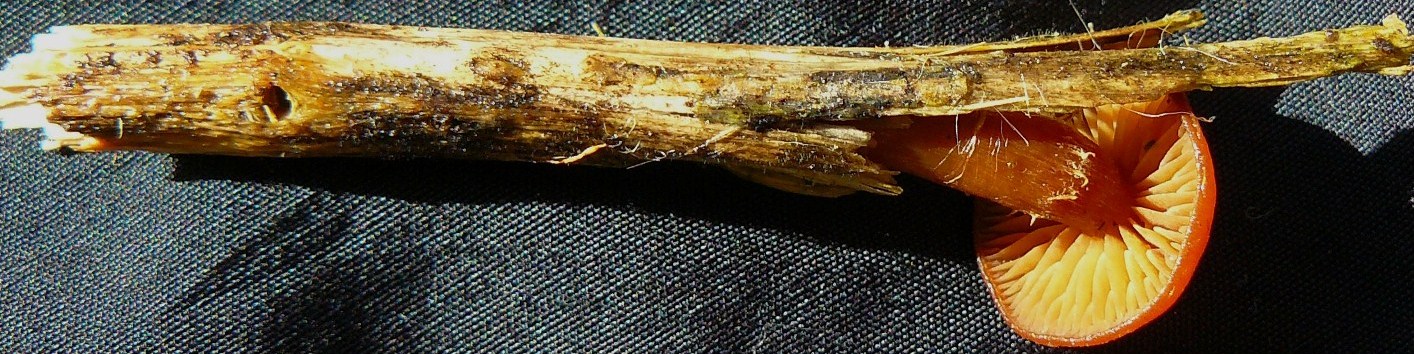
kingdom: Fungi
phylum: Basidiomycota
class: Agaricomycetes
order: Agaricales
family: Tubariaceae
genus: Tubaria
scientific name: Tubaria furfuracea
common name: kliddet fnughat
